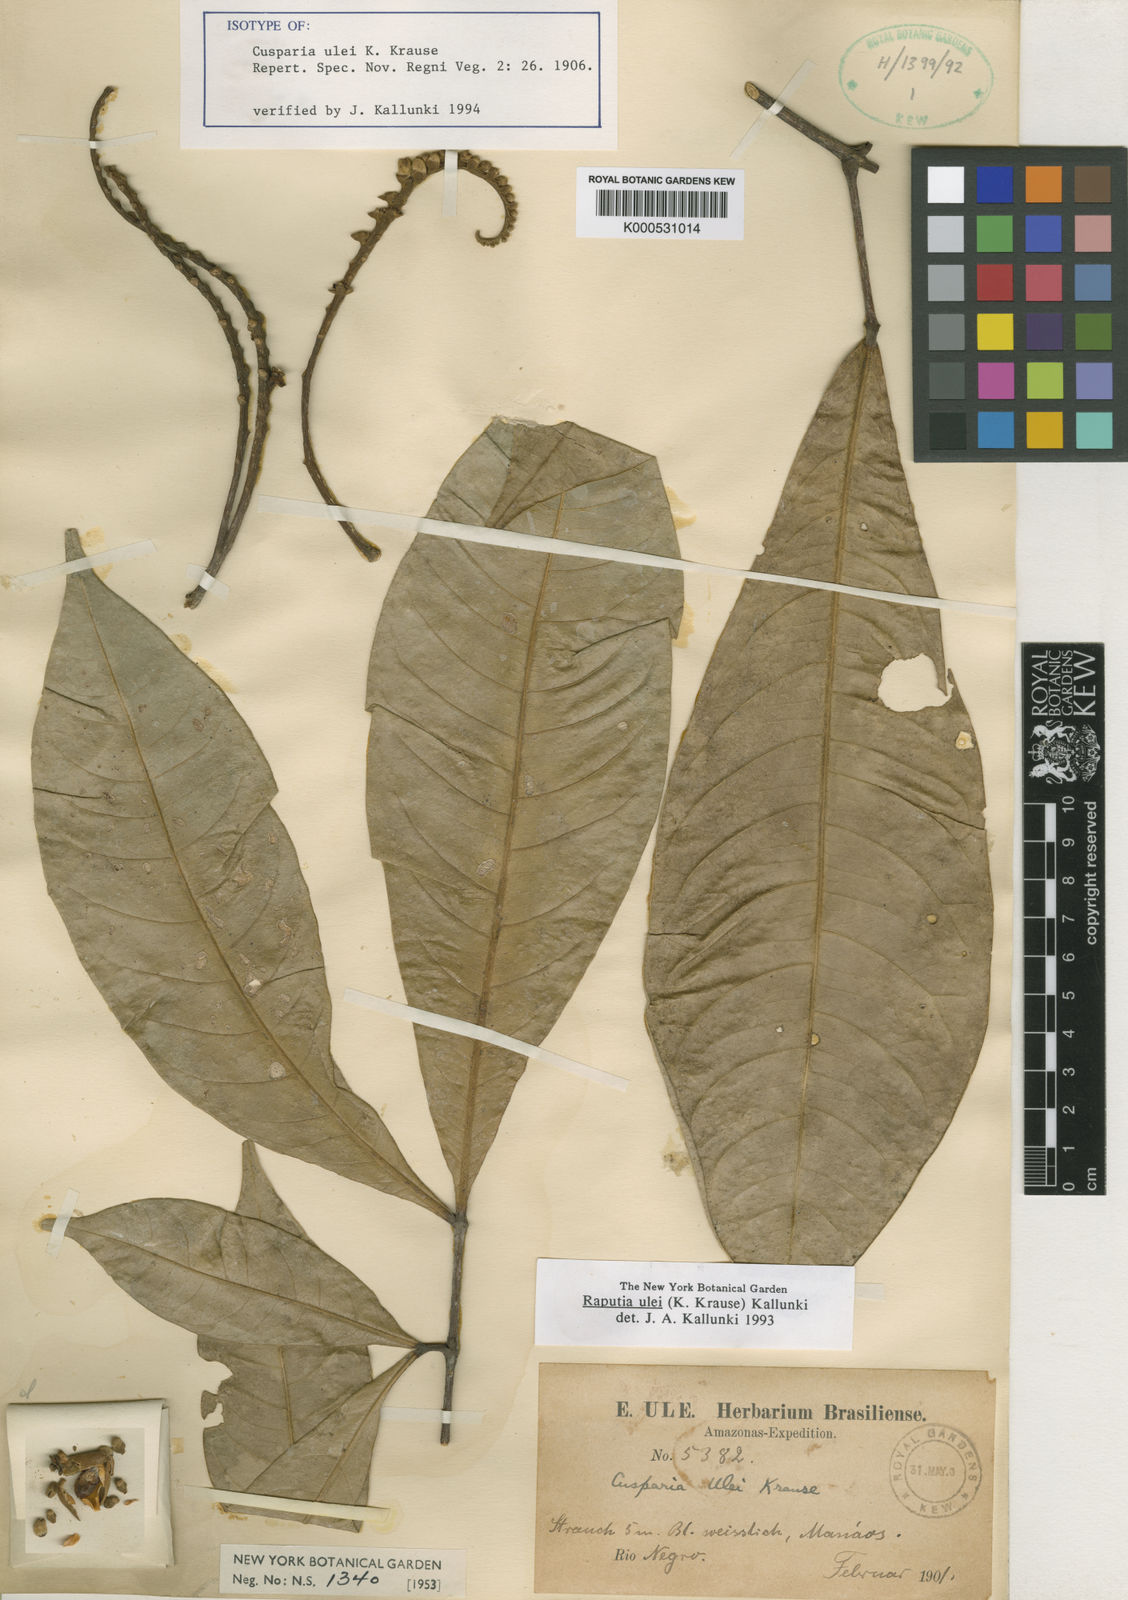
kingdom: Plantae
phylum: Tracheophyta
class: Magnoliopsida
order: Sapindales
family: Rutaceae
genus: Raputia
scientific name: Raputia ulei
